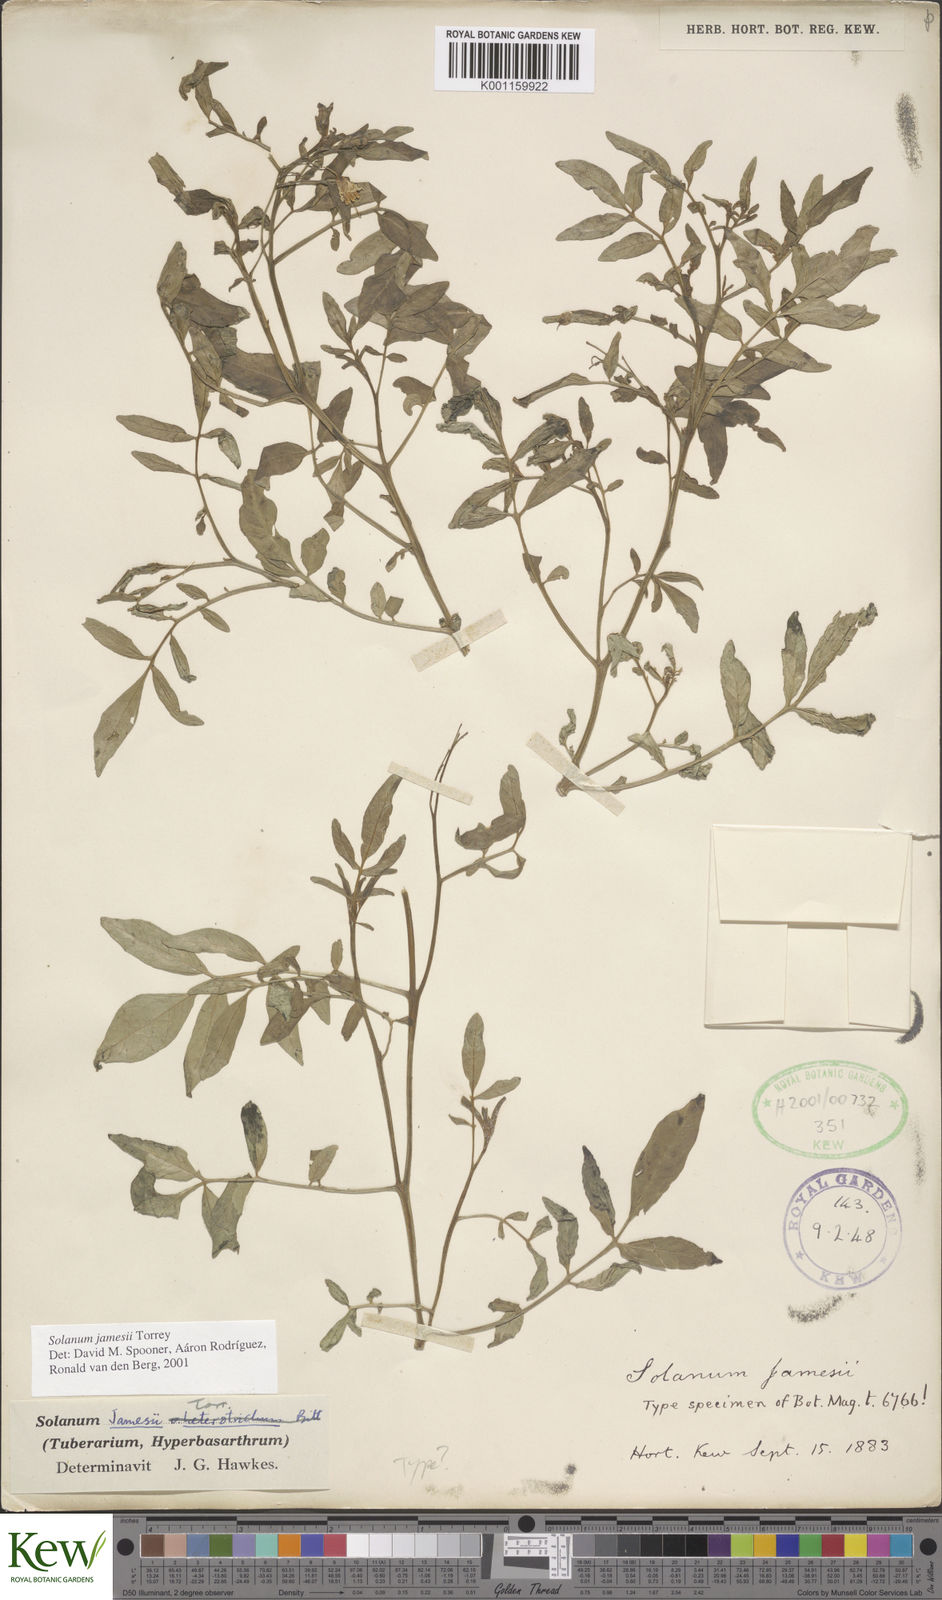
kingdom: Plantae
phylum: Tracheophyta
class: Magnoliopsida
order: Solanales
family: Solanaceae
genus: Solanum
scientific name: Solanum jamesii
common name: Wild potato
